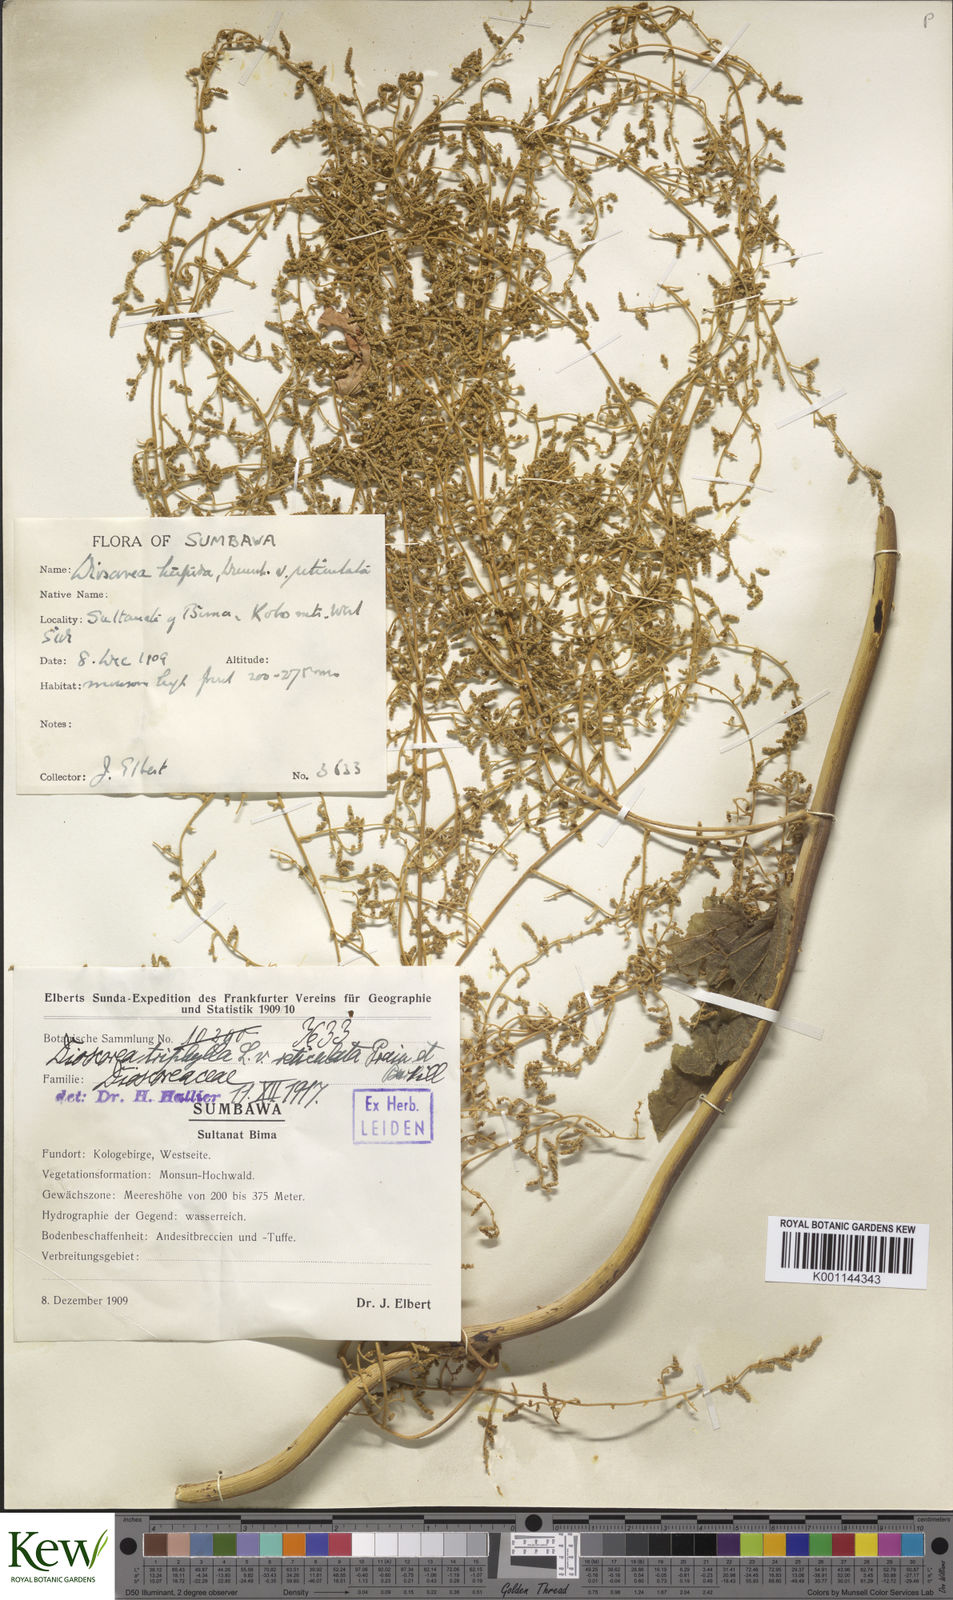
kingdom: Plantae
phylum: Tracheophyta
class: Liliopsida
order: Dioscoreales
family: Dioscoreaceae
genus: Dioscorea
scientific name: Dioscorea hispida
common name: Asiatic bitter yam
